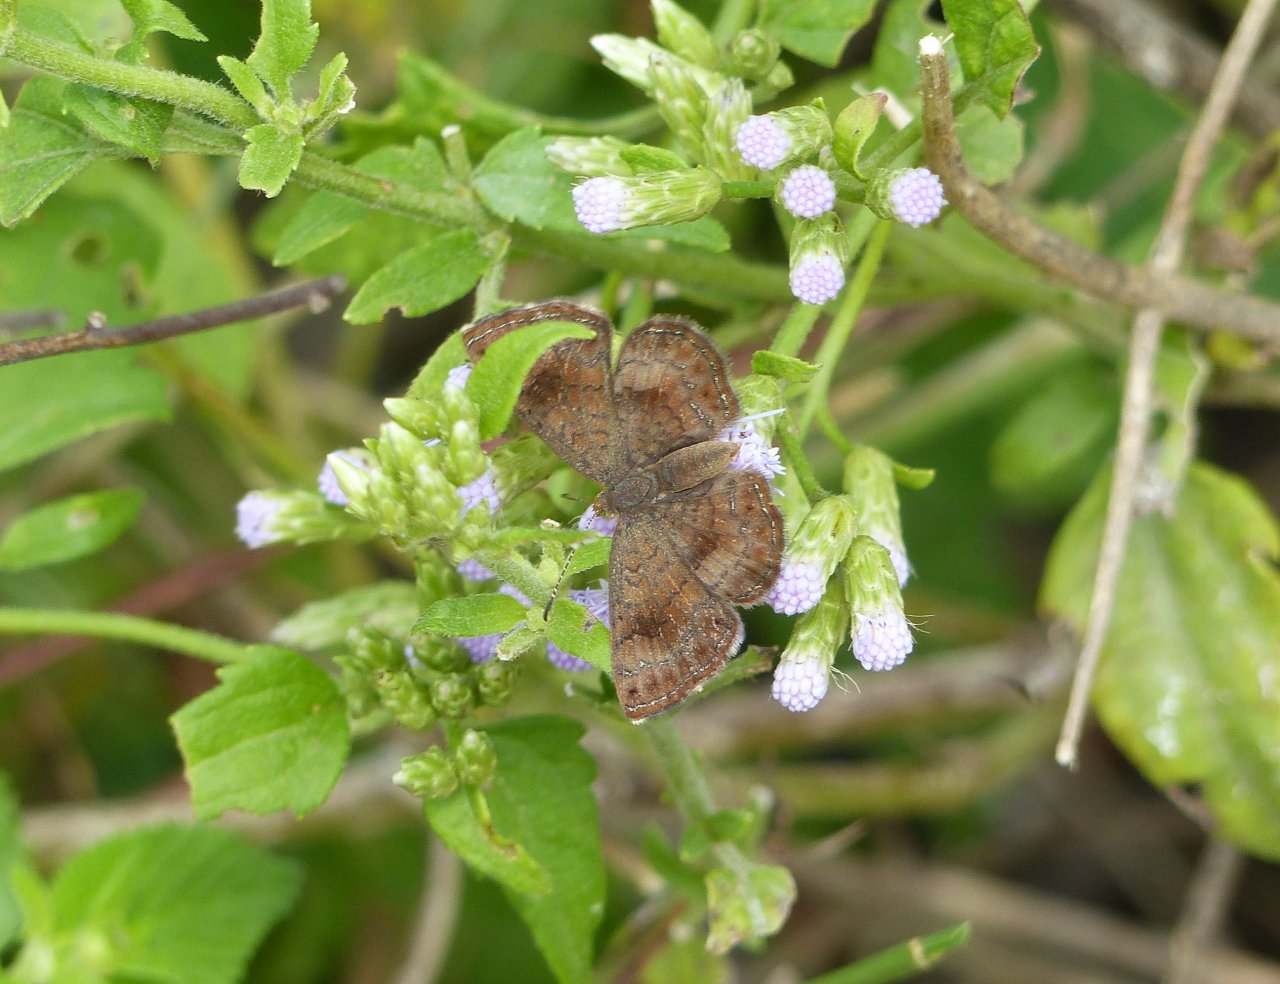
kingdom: Animalia
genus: Calephelis
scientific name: Calephelis nemesis
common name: Fatal Metalmark
